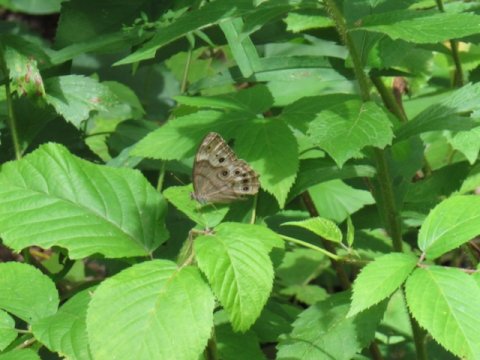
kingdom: Animalia
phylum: Arthropoda
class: Insecta
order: Lepidoptera
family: Nymphalidae
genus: Lethe
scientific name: Lethe anthedon
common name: Northern Pearly-Eye
